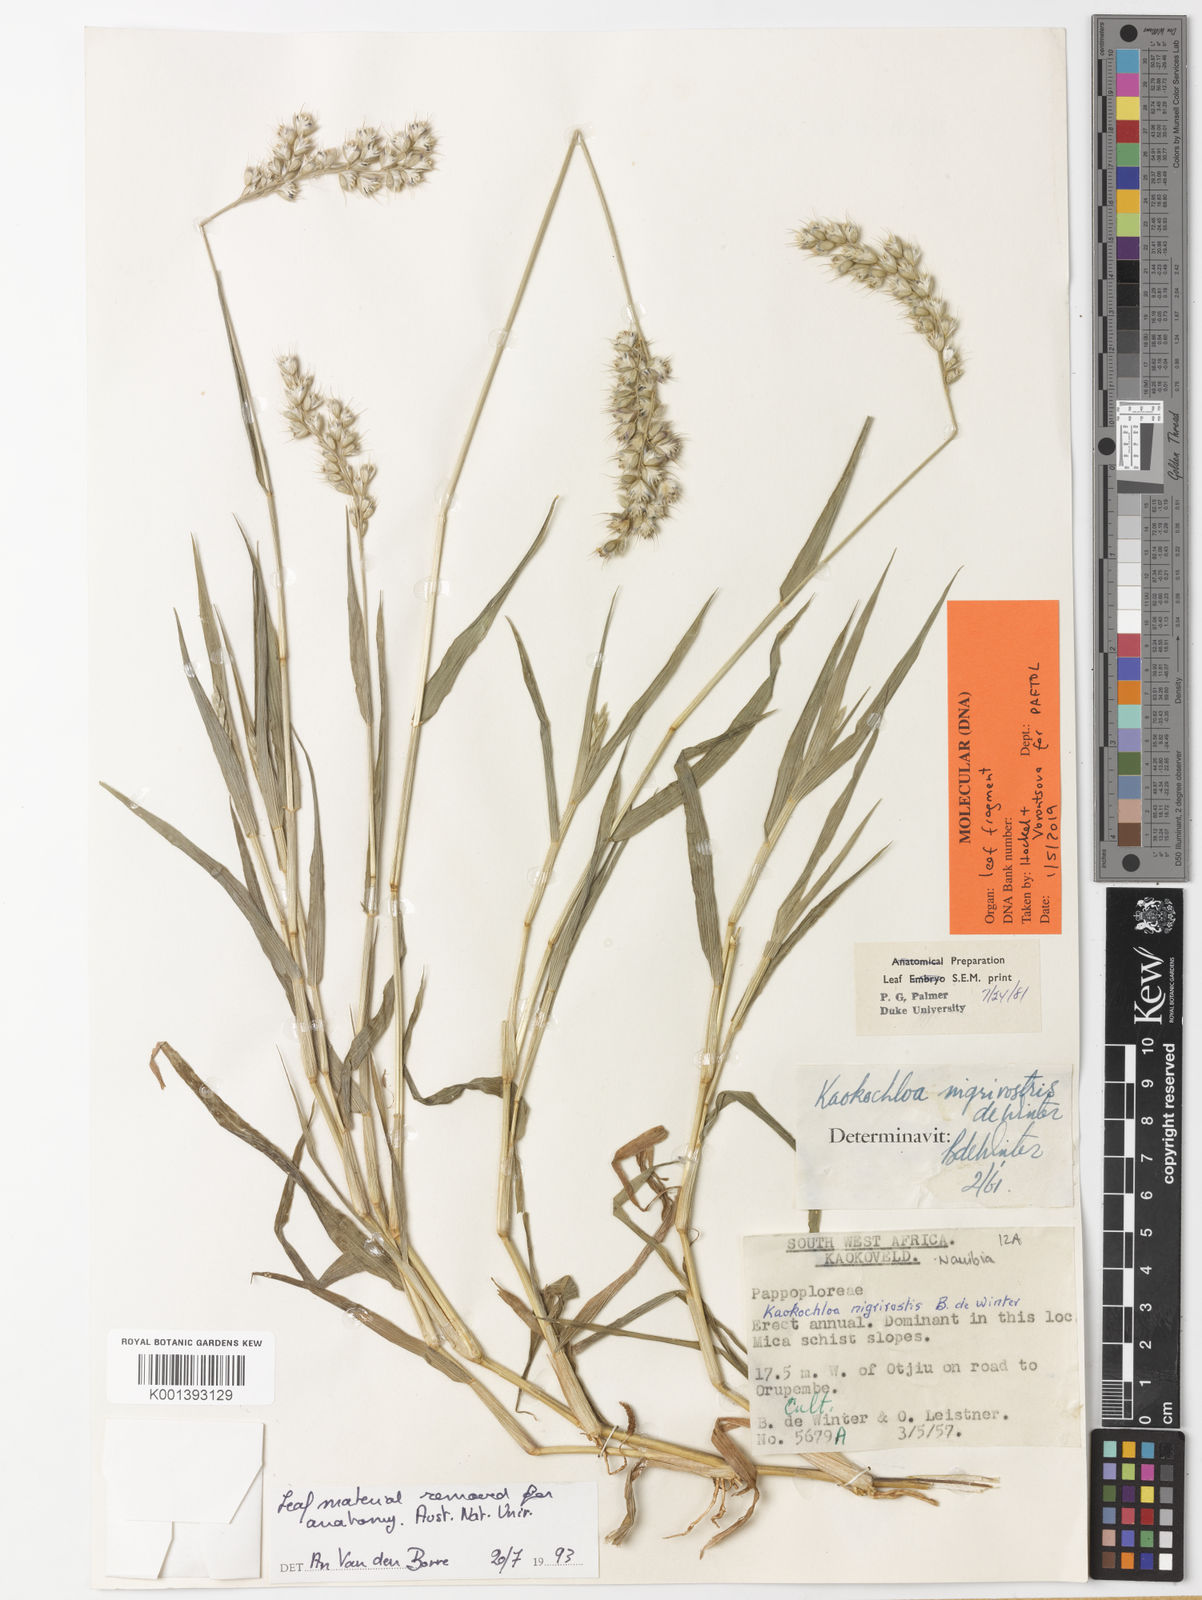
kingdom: Plantae
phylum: Tracheophyta
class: Liliopsida
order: Poales
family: Poaceae
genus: Kaokochloa
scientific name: Kaokochloa nigrirostris
